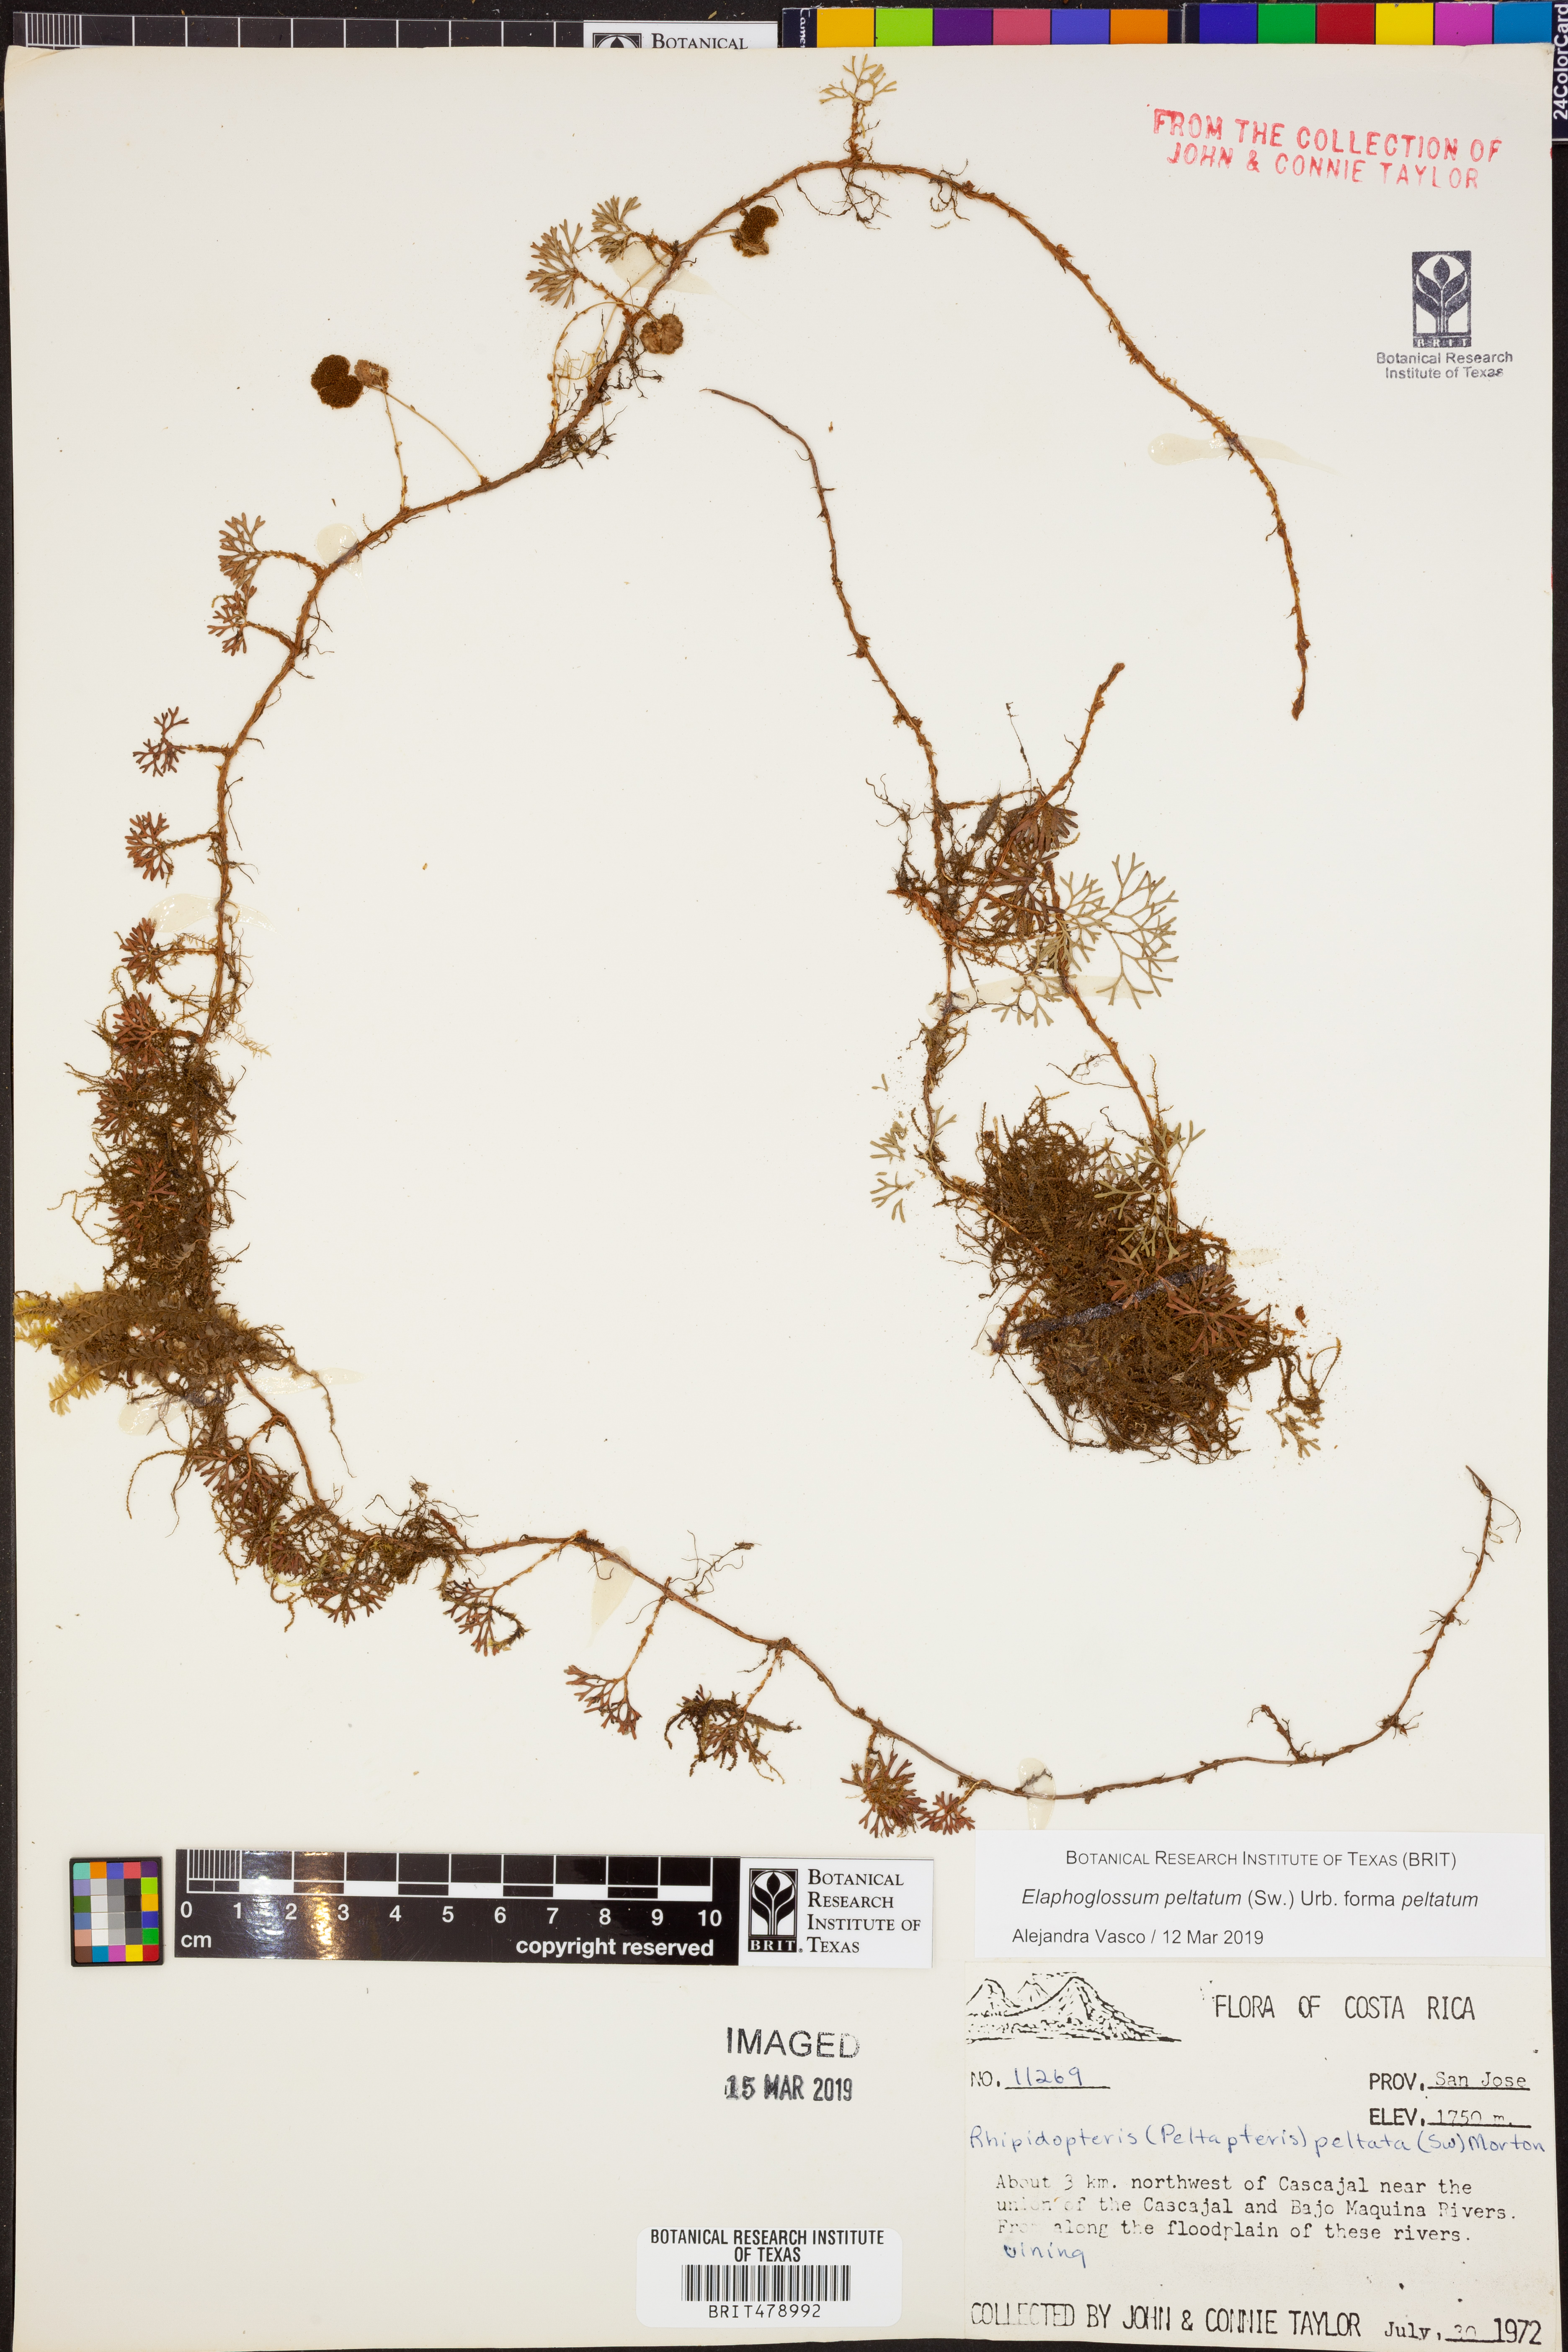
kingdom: Plantae
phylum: Tracheophyta
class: Polypodiopsida
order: Polypodiales
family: Dryopteridaceae
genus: Elaphoglossum
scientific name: Elaphoglossum peltatum
